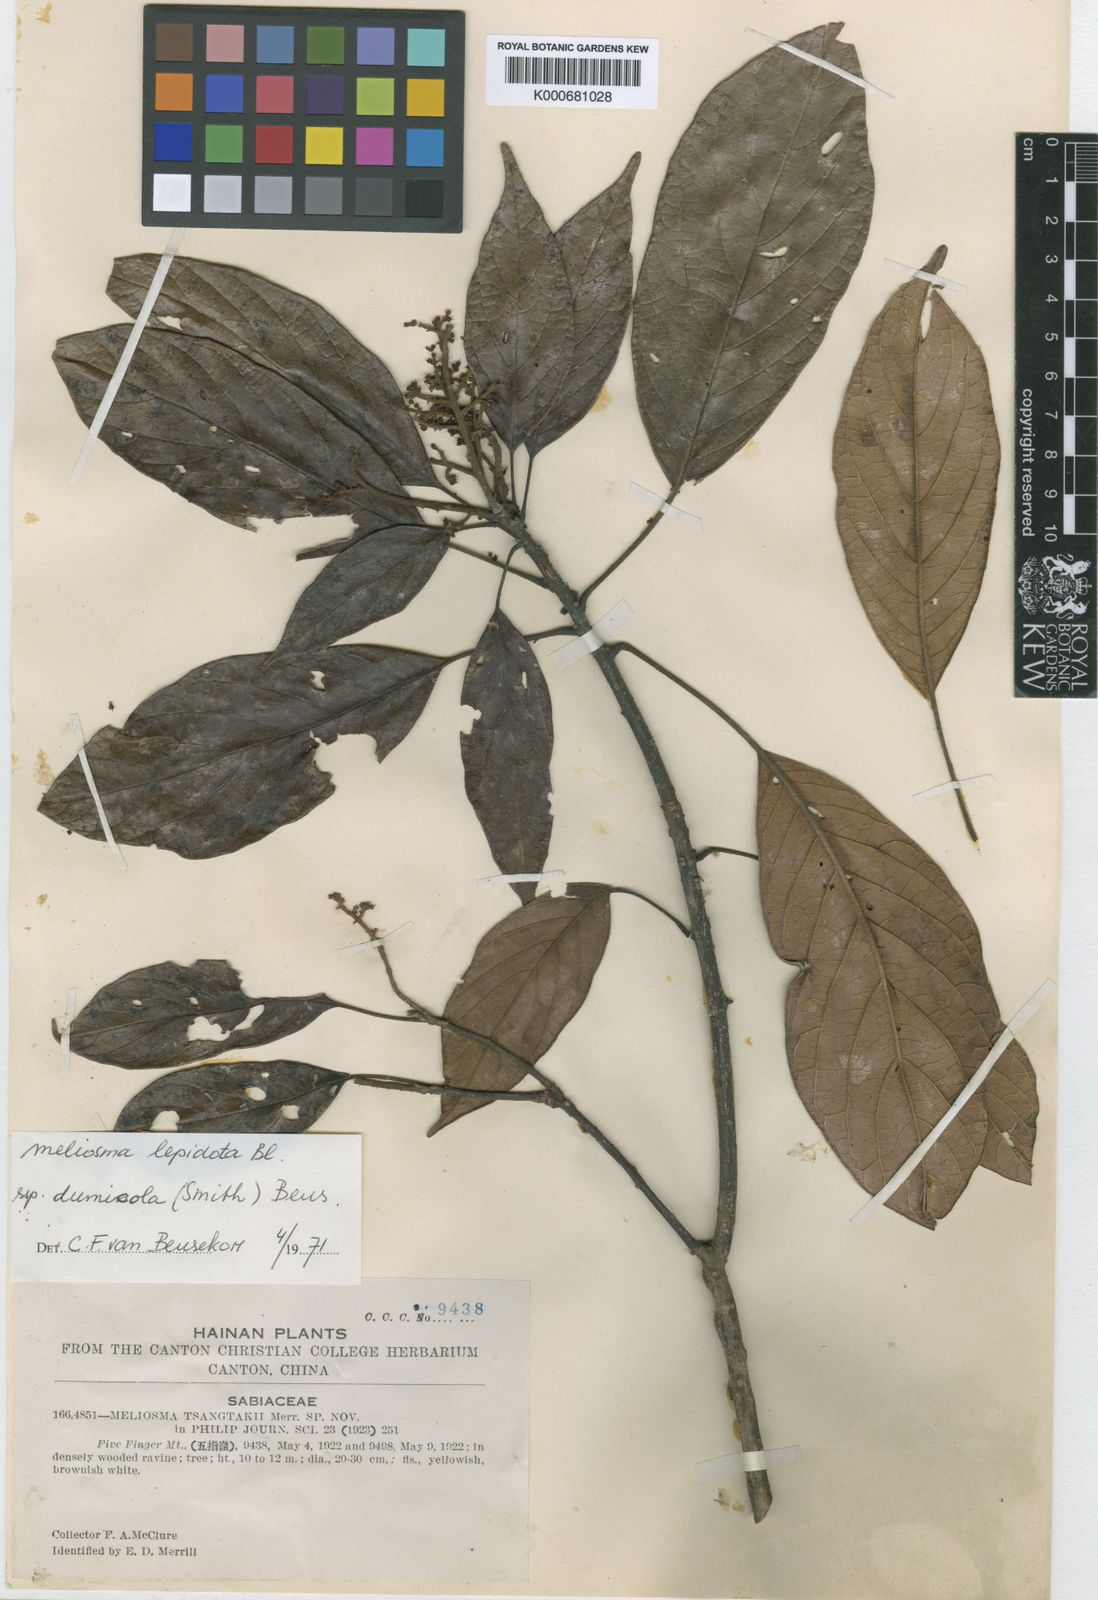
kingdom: Plantae
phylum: Tracheophyta
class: Magnoliopsida
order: Proteales
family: Sabiaceae
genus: Meliosma
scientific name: Meliosma dumicola
